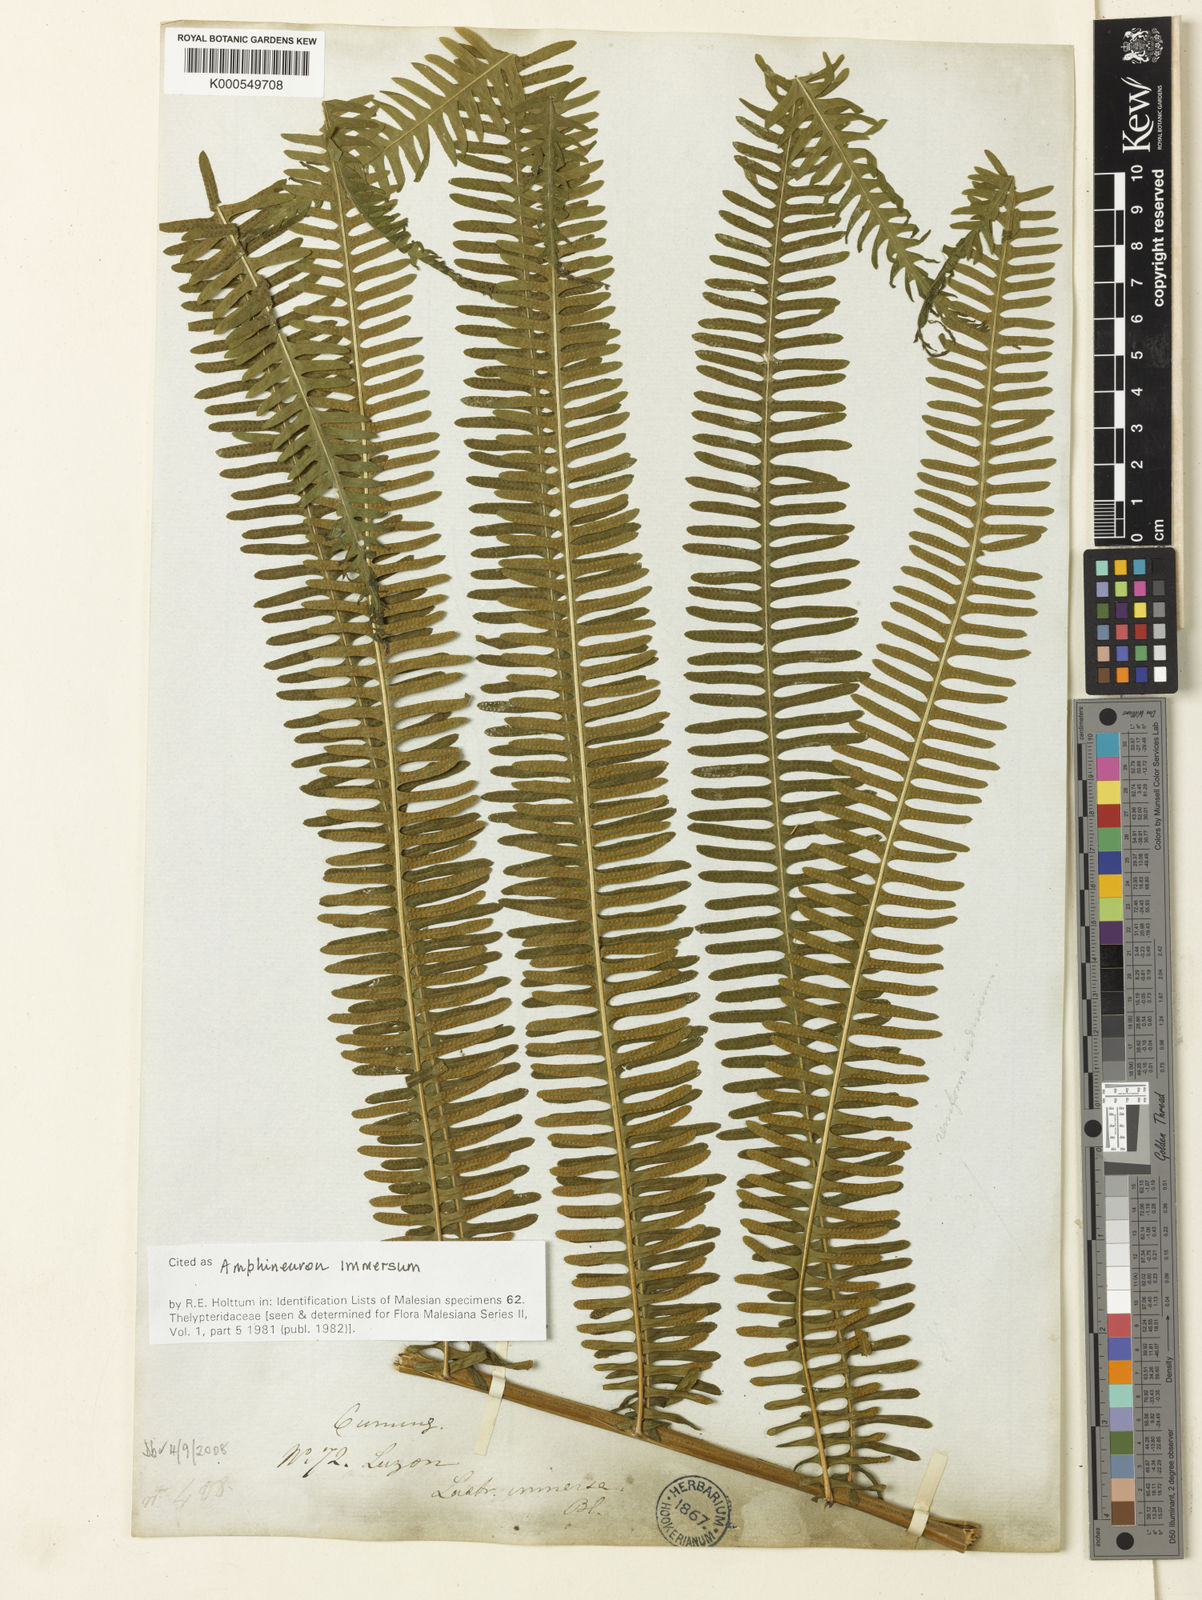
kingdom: Plantae
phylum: Tracheophyta
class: Polypodiopsida
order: Polypodiales
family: Thelypteridaceae
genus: Amblovenatum
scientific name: Amblovenatum immersum
